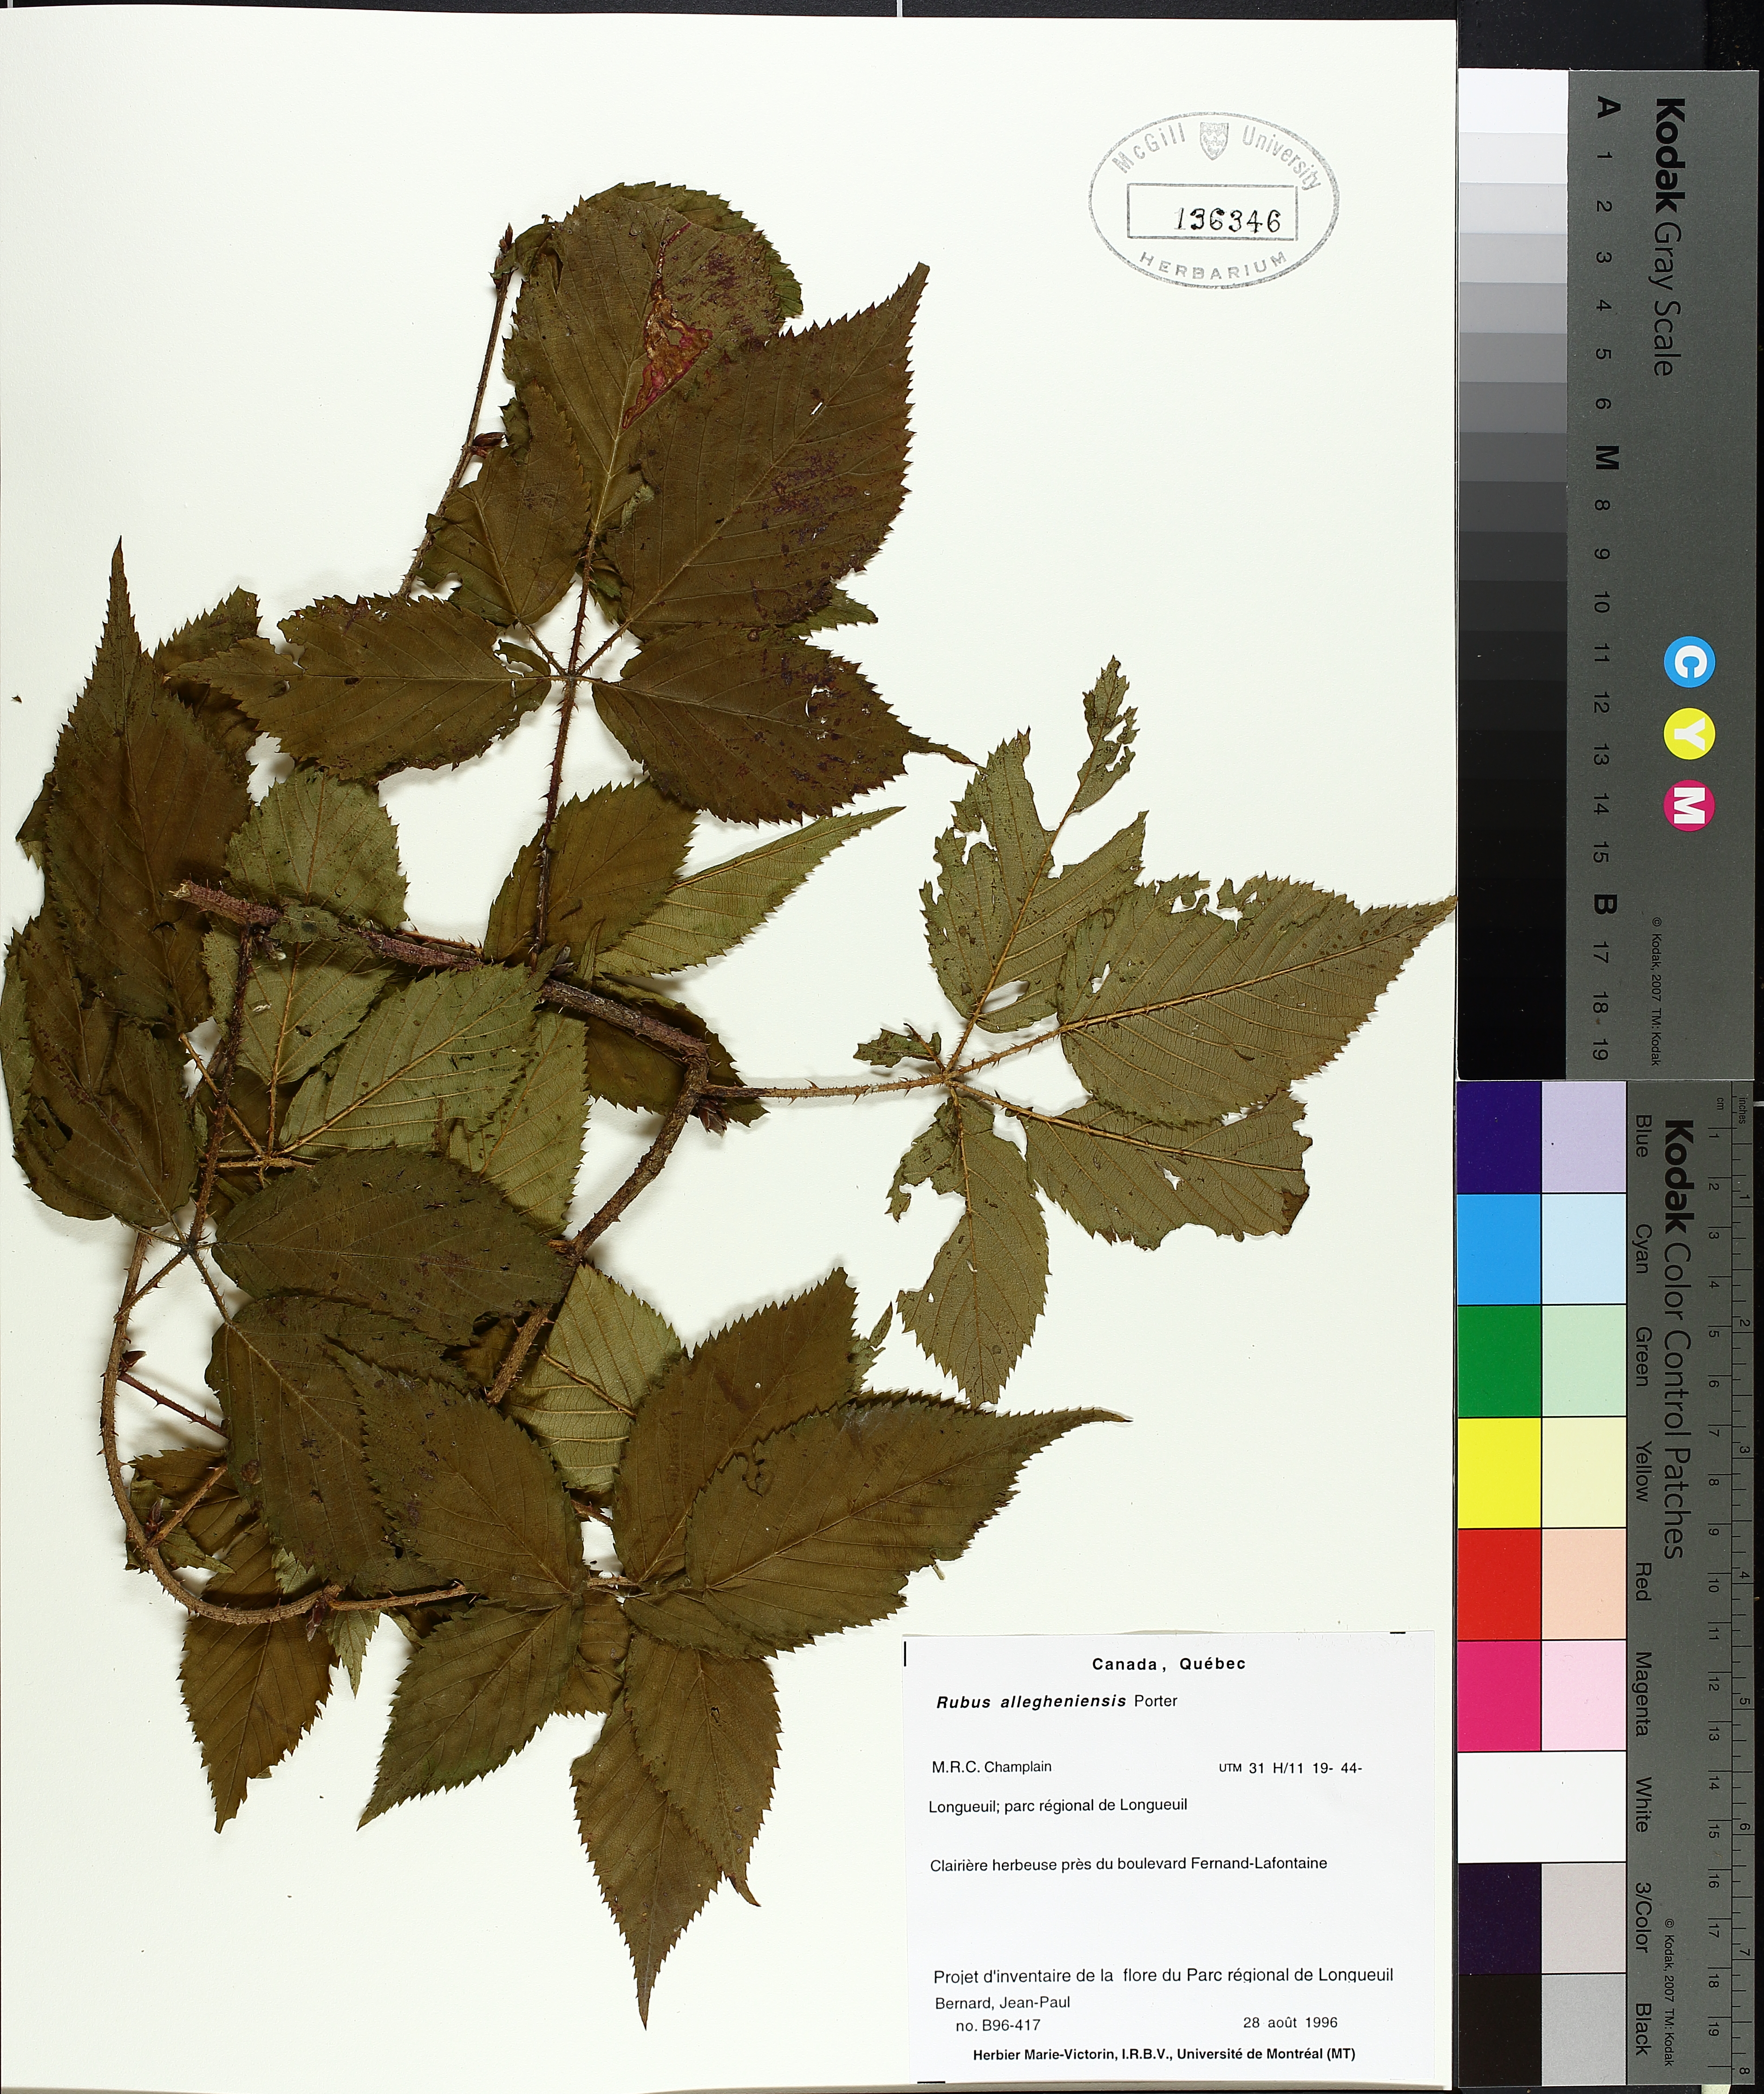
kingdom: Plantae
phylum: Tracheophyta
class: Magnoliopsida
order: Rosales
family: Rosaceae
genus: Rubus
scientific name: Rubus allegheniensis
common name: Allegheny blackberry
